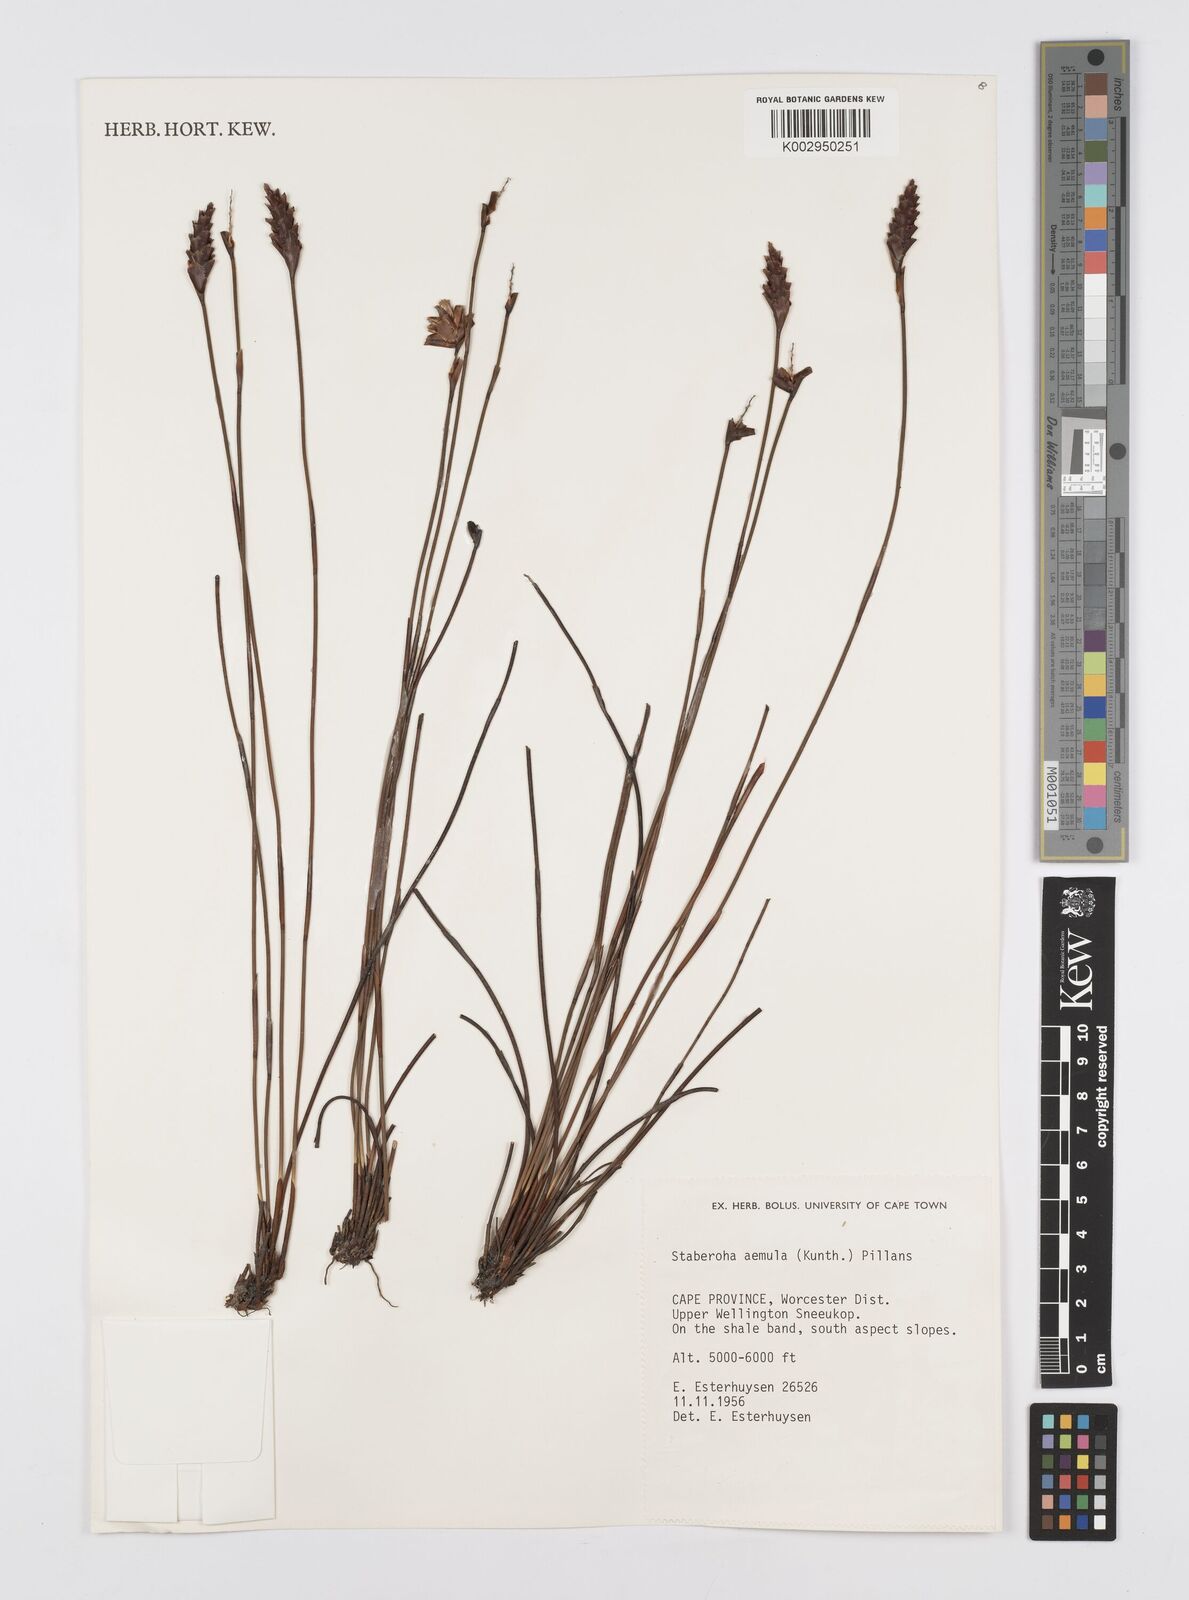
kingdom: Plantae
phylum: Tracheophyta
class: Liliopsida
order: Poales
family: Restionaceae
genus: Staberoha
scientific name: Staberoha aemula
